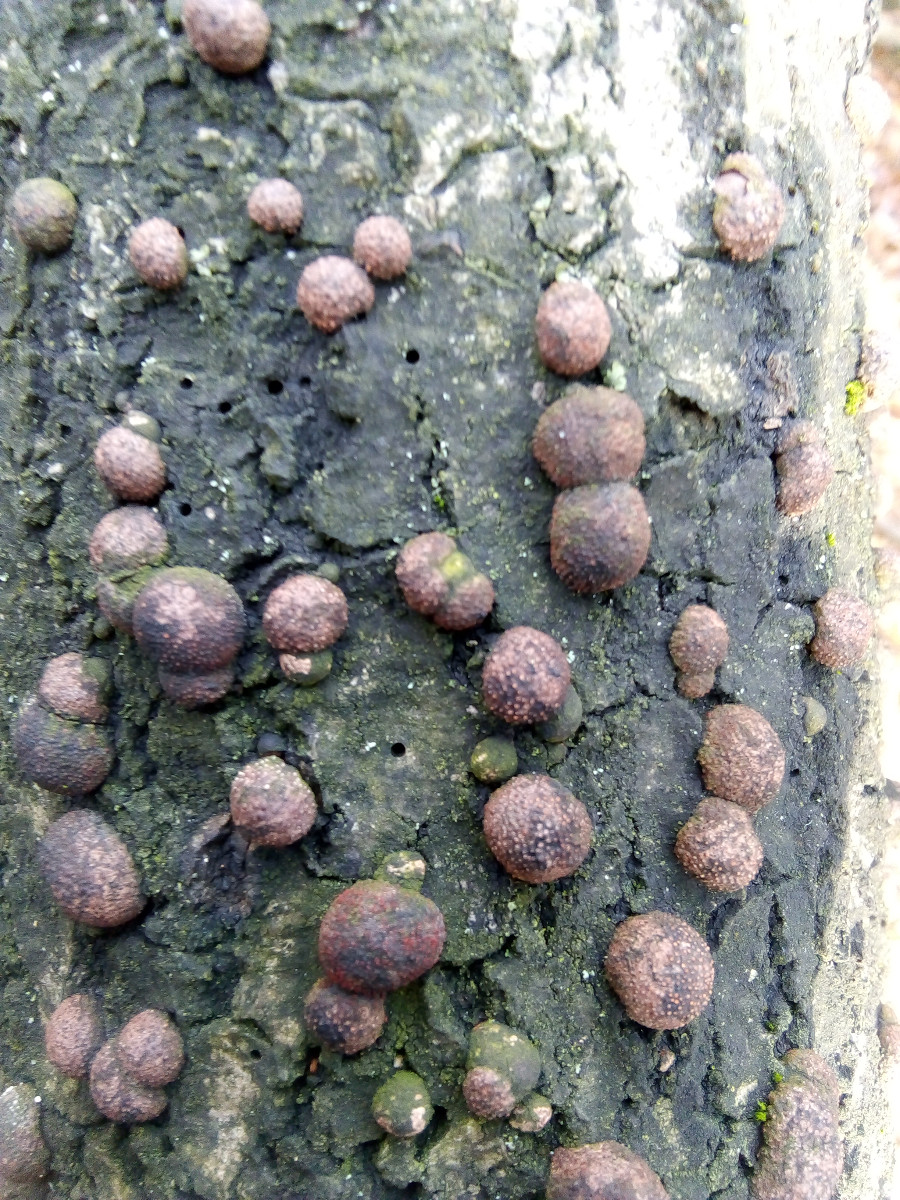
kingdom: Fungi
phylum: Ascomycota
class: Sordariomycetes
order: Xylariales
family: Hypoxylaceae
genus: Hypoxylon
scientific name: Hypoxylon fragiforme
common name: kuljordbær
